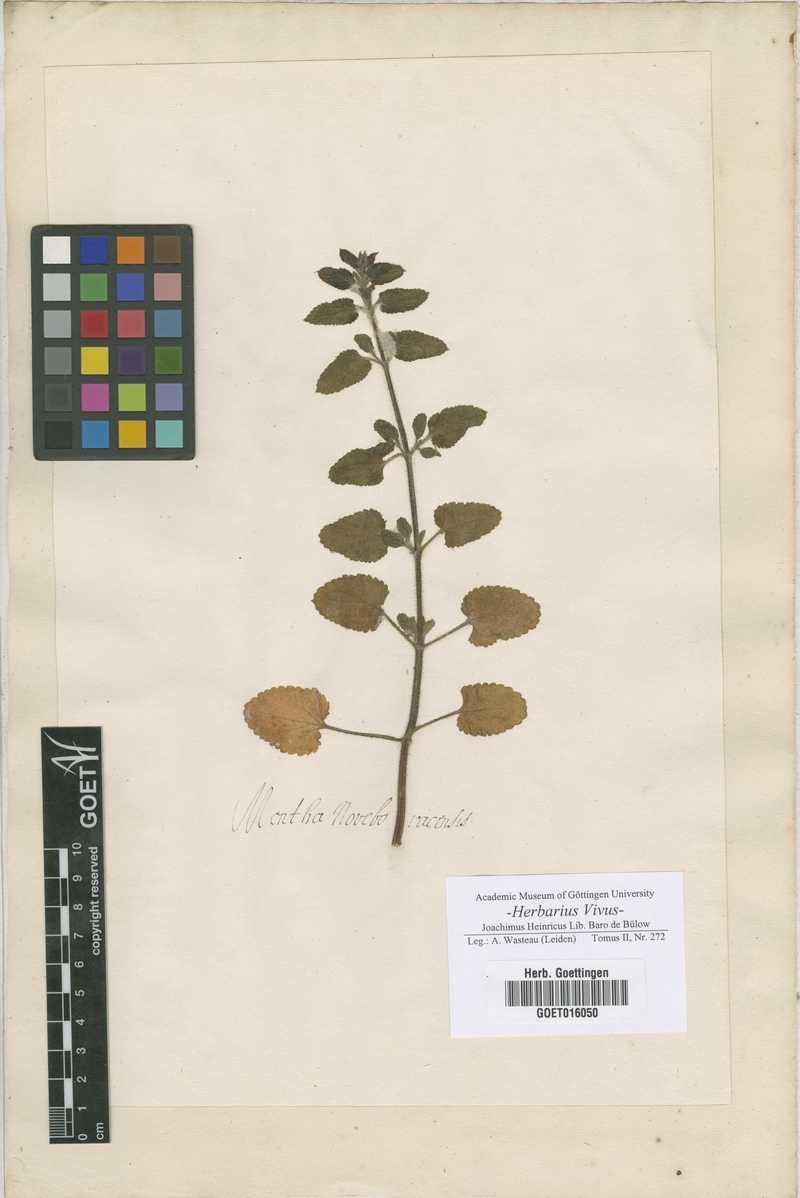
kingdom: Plantae
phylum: Tracheophyta
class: Magnoliopsida
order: Lamiales
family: Lamiaceae
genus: Mentha
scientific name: Mentha
